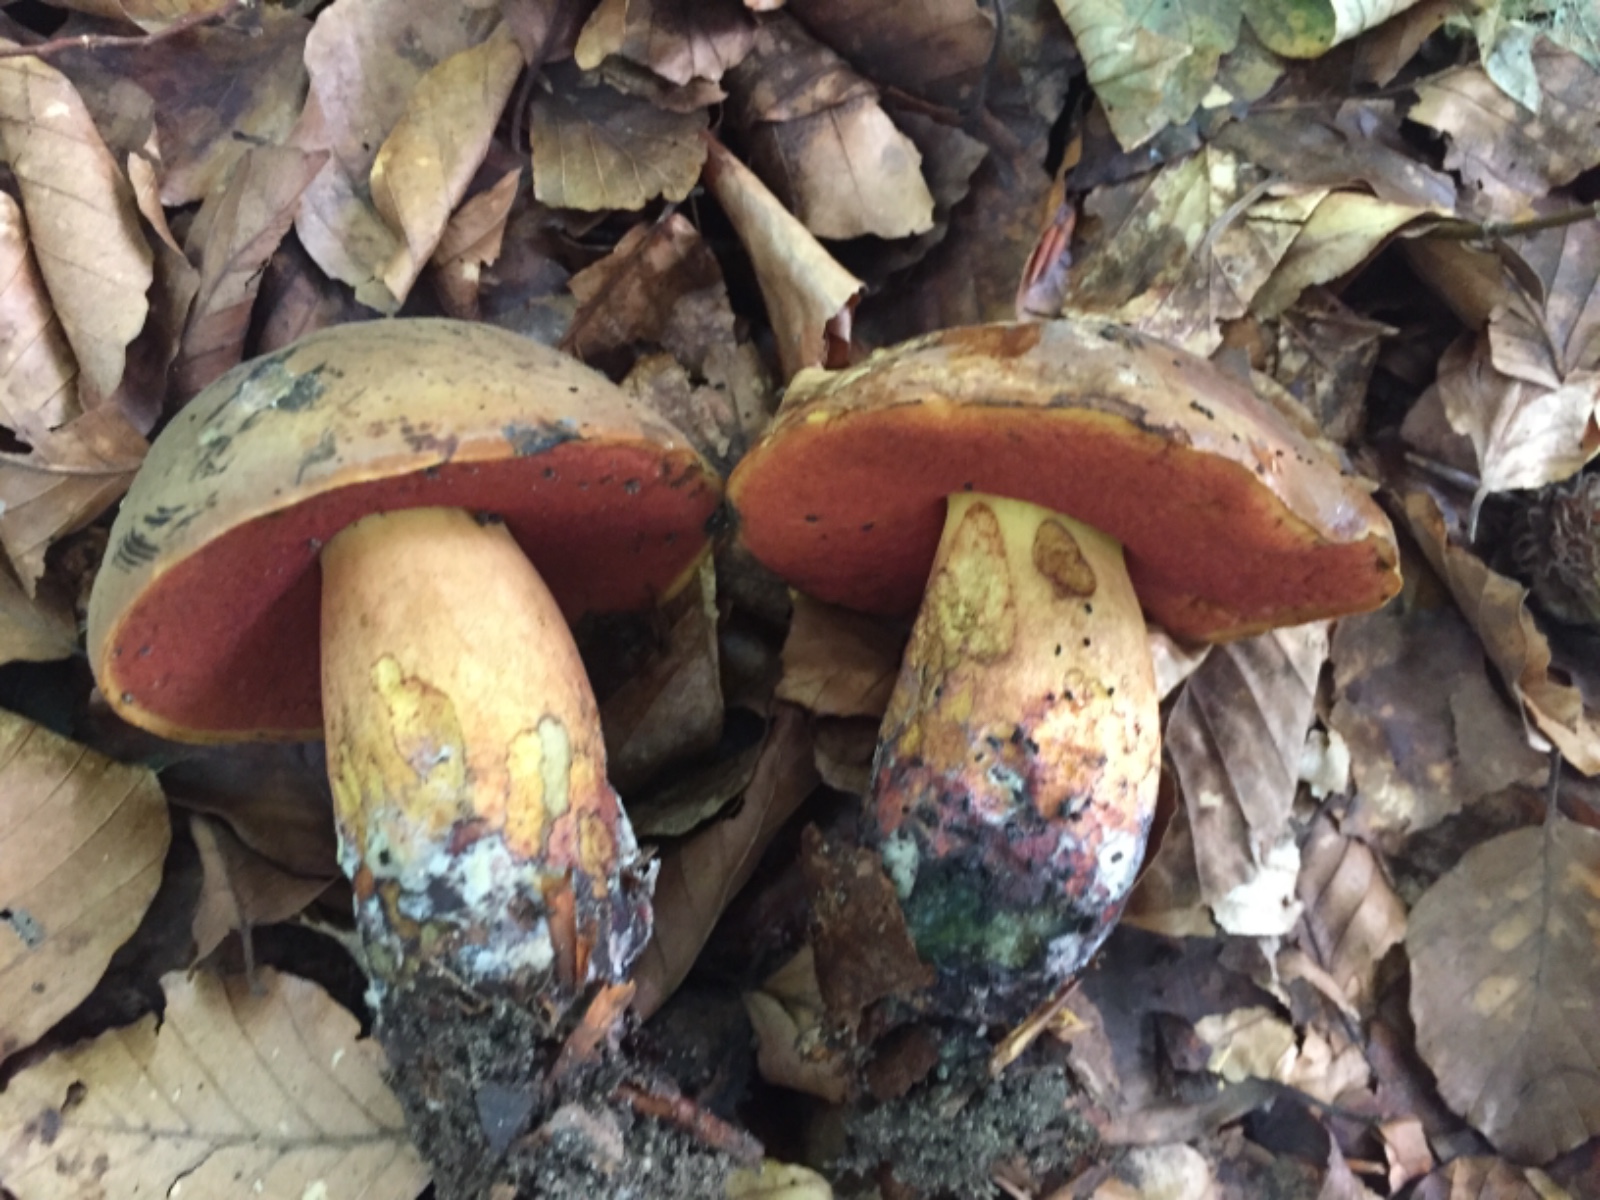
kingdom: Fungi
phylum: Basidiomycota
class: Agaricomycetes
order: Boletales
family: Boletaceae
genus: Neoboletus
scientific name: Neoboletus erythropus
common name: punktstokket indigorørhat
